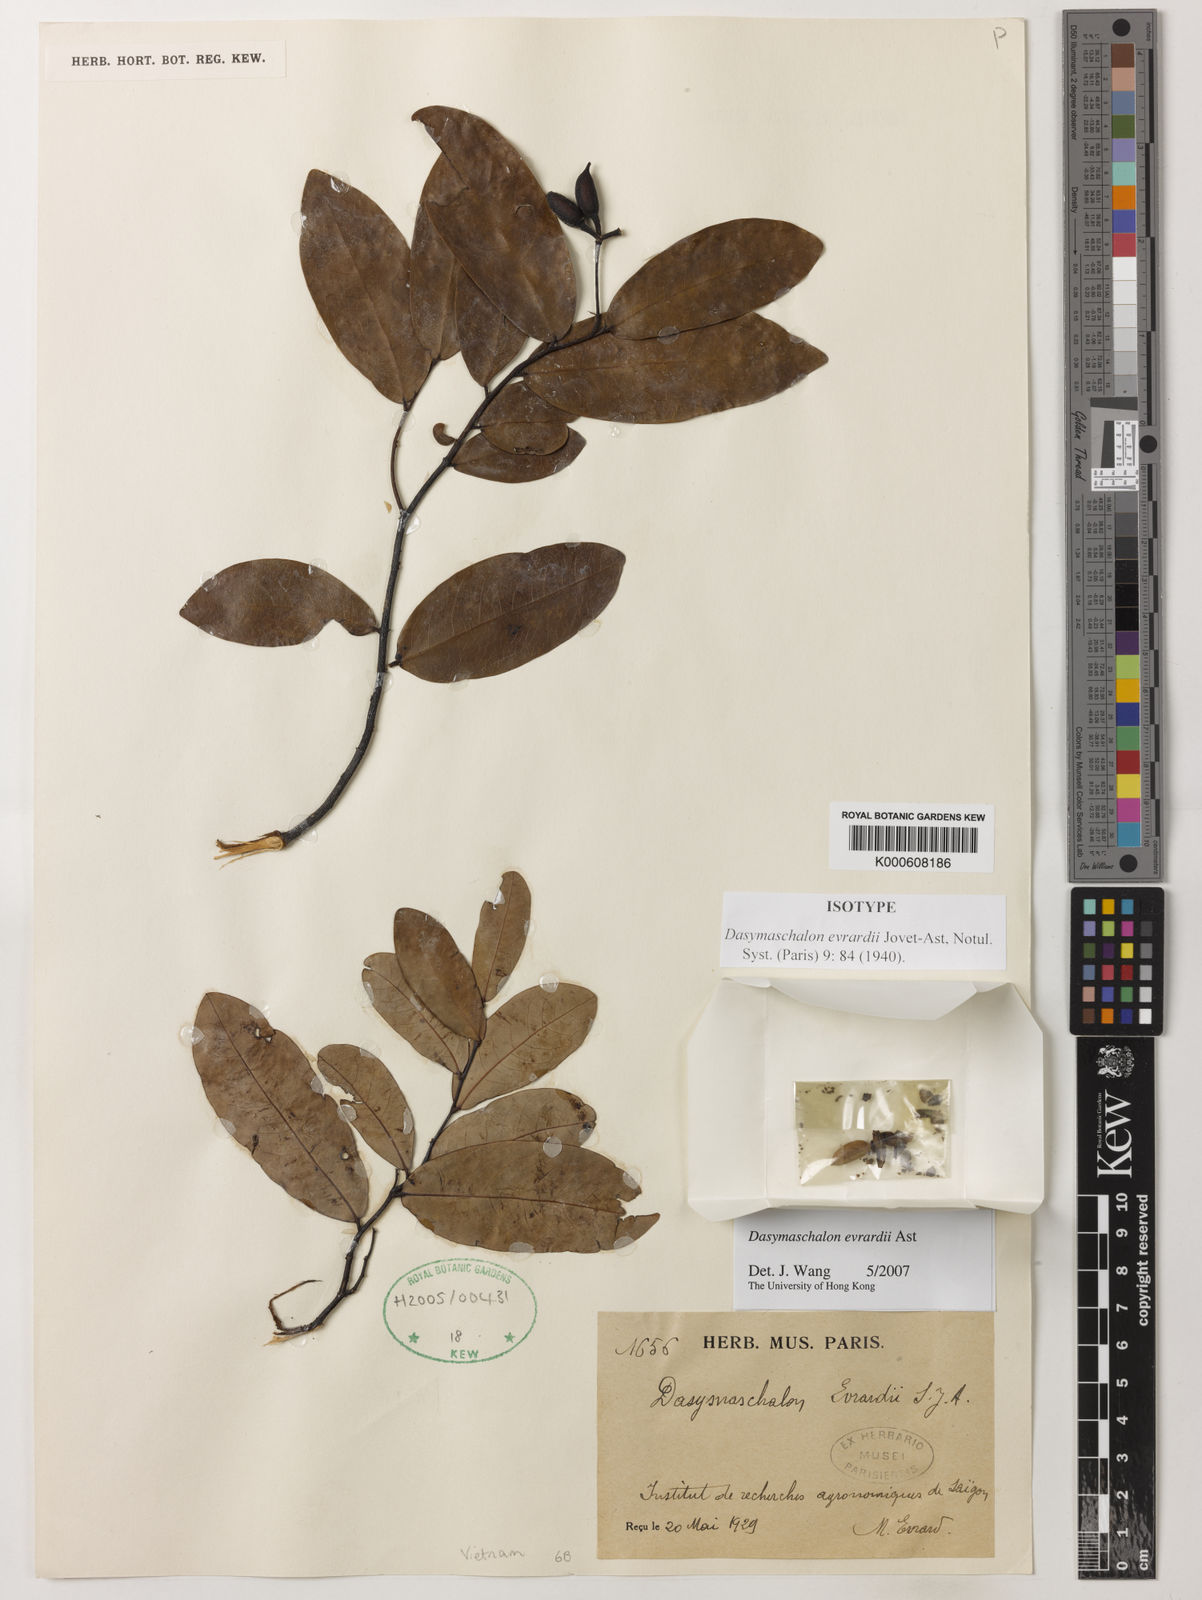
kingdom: Plantae
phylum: Tracheophyta
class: Magnoliopsida
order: Magnoliales
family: Annonaceae
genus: Desmos
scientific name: Desmos evrardii
